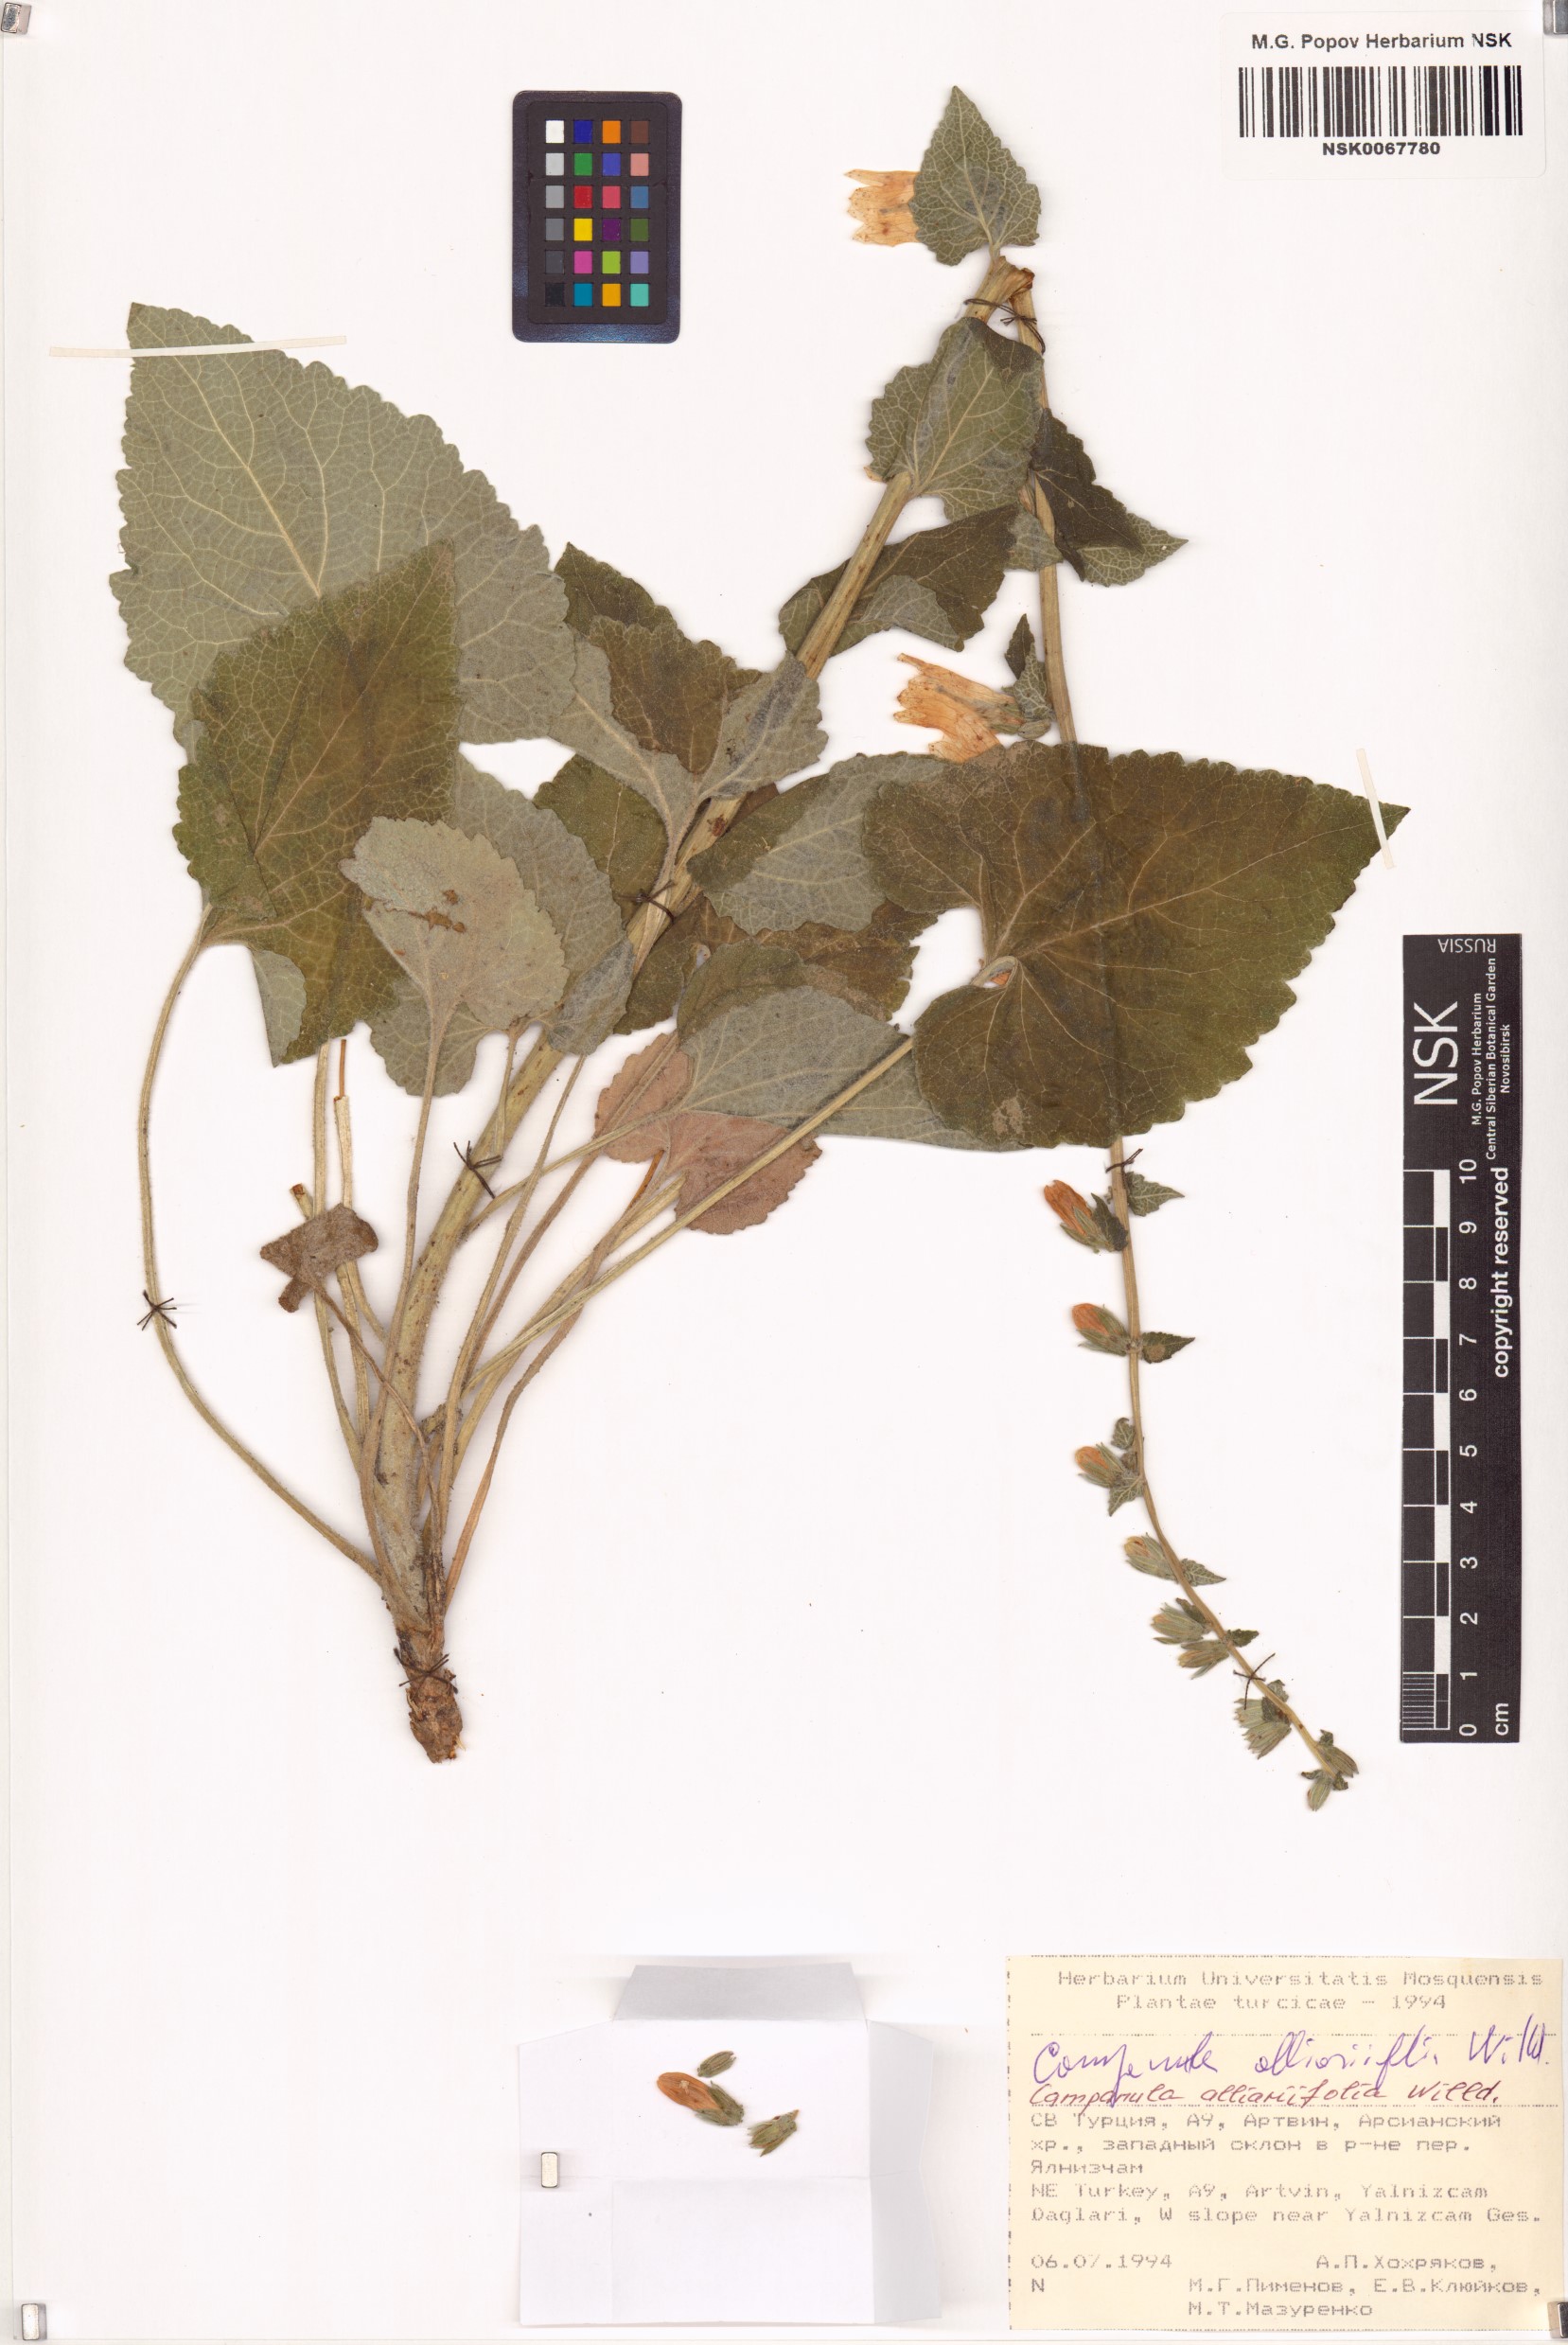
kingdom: Plantae
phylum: Tracheophyta
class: Magnoliopsida
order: Asterales
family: Campanulaceae
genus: Campanula
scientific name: Campanula alliariifolia
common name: Cornish bellflower
